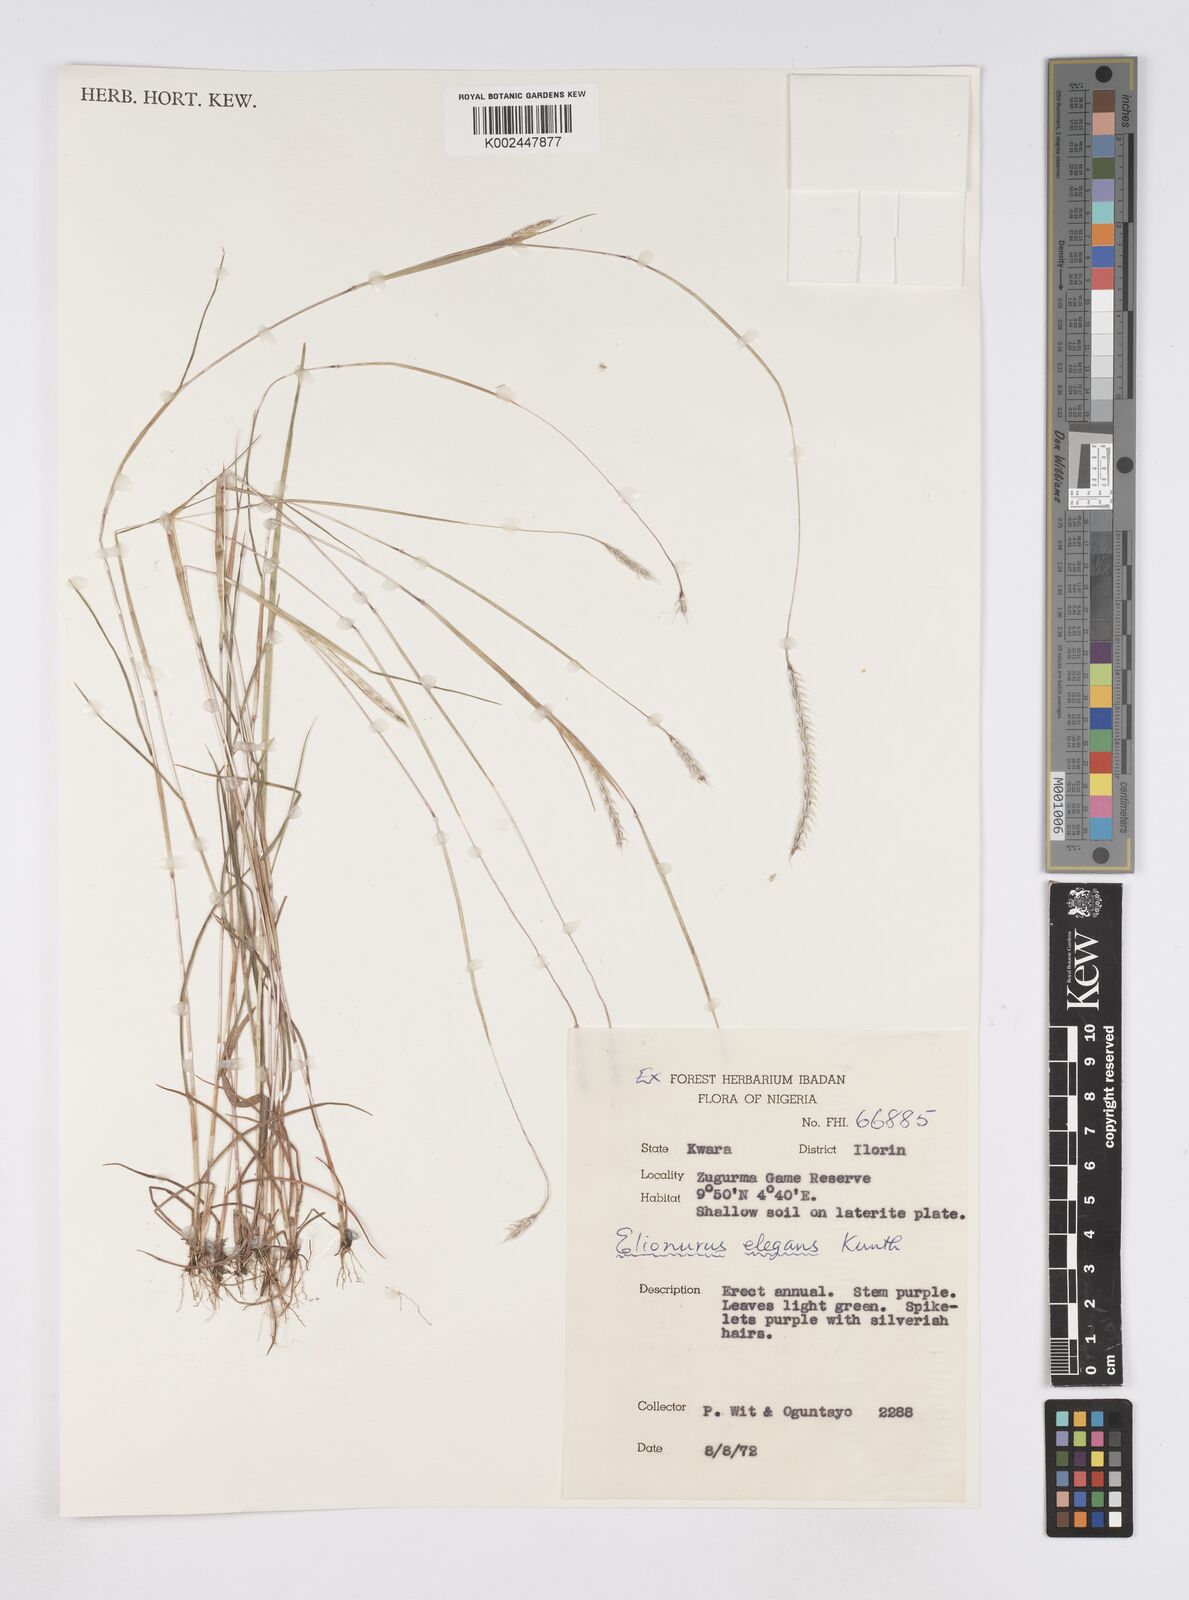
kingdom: Plantae
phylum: Tracheophyta
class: Liliopsida
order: Poales
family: Poaceae
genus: Elionurus
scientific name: Elionurus elegans
